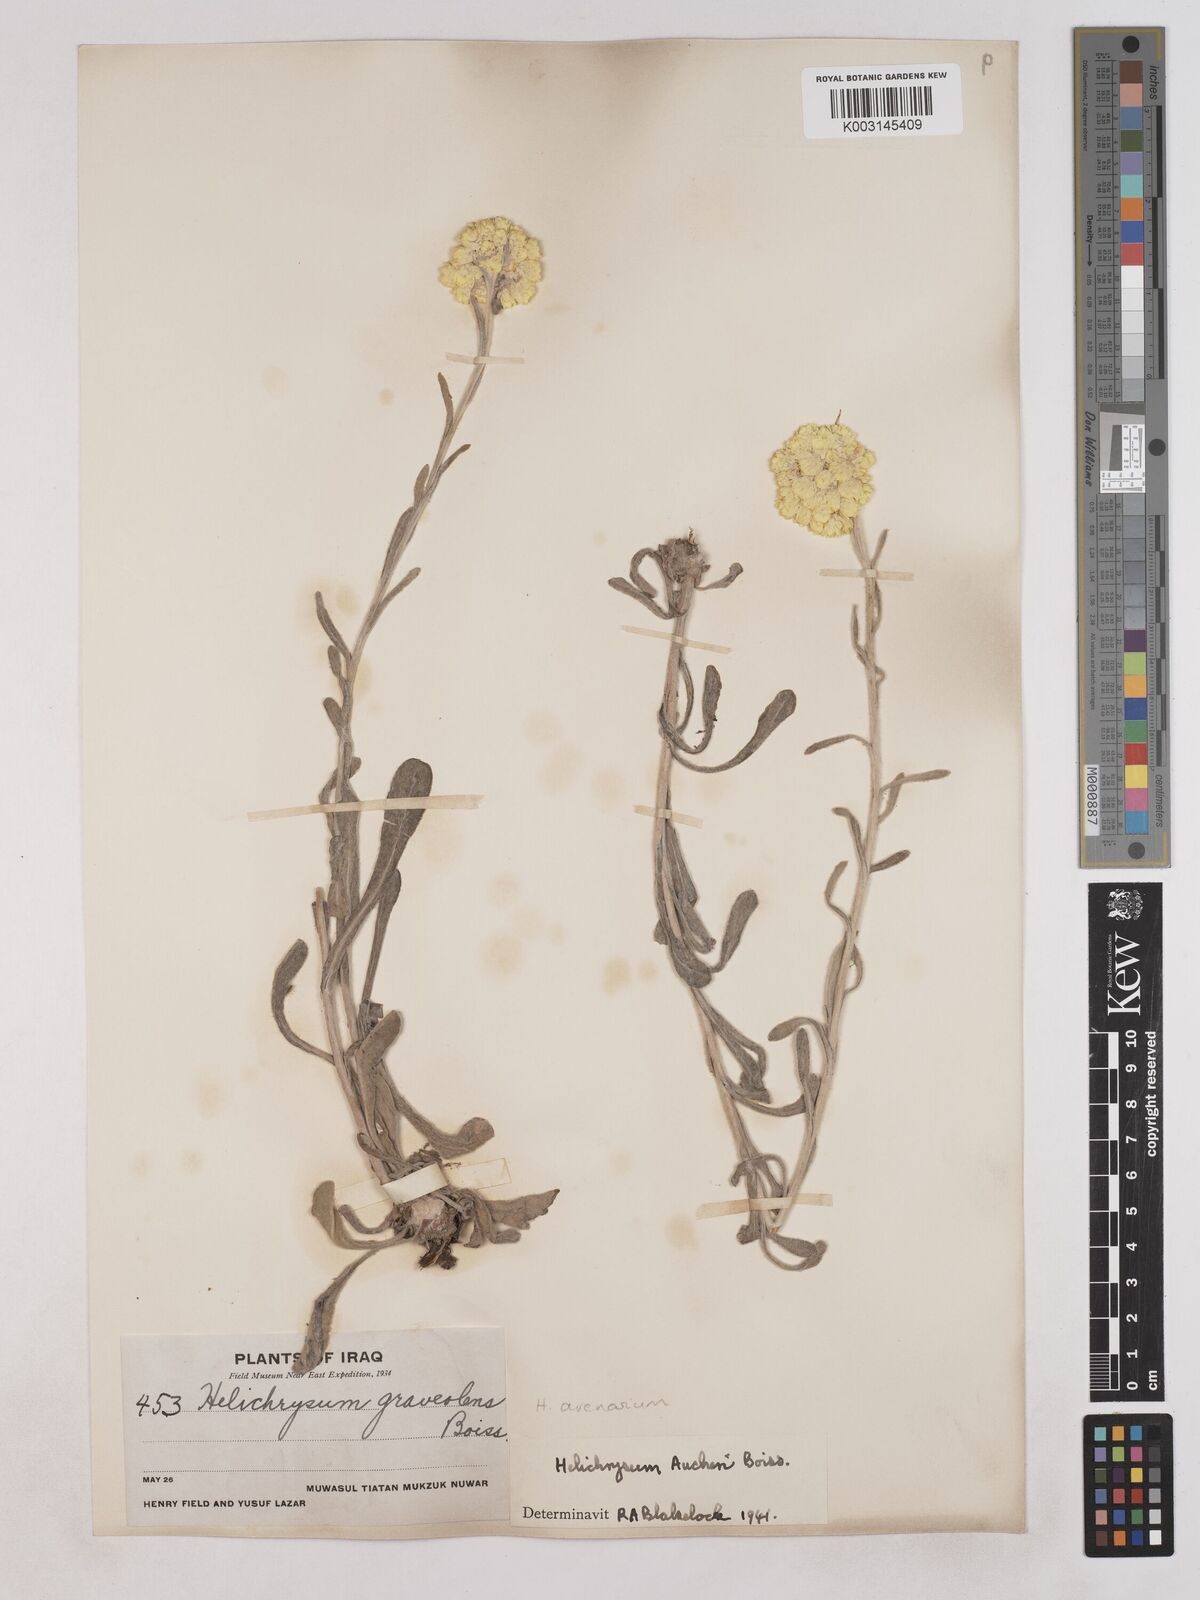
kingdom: Plantae
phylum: Tracheophyta
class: Magnoliopsida
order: Asterales
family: Asteraceae
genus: Helichrysum
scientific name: Helichrysum arenarium
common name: Strawflower
